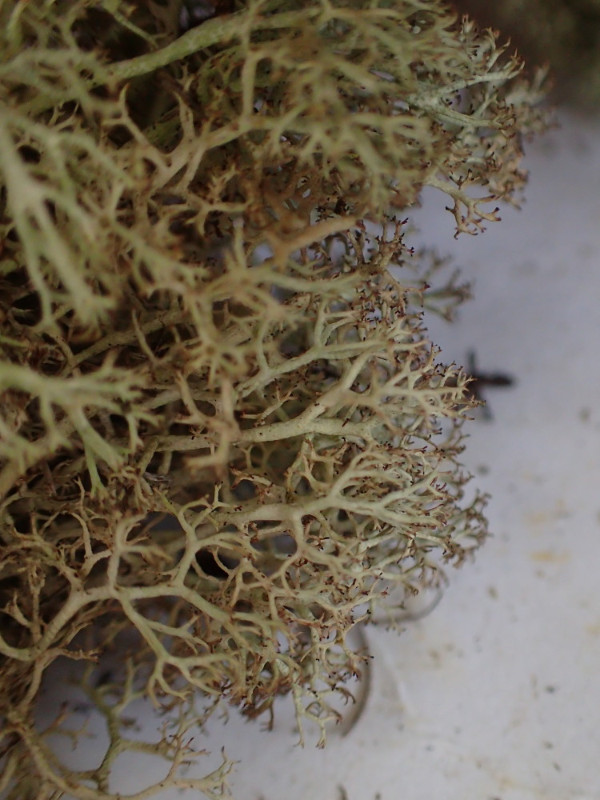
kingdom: Fungi
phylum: Ascomycota
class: Lecanoromycetes
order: Lecanorales
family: Cladoniaceae
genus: Cladonia
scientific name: Cladonia ciliata
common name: spinkel rensdyrlav
